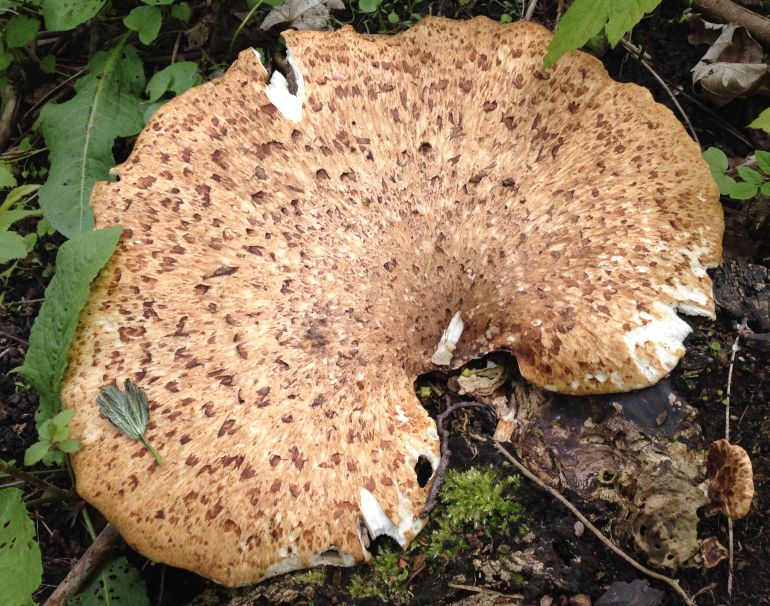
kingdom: Fungi
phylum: Basidiomycota
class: Agaricomycetes
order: Polyporales
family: Polyporaceae
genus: Cerioporus
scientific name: Cerioporus squamosus
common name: skællet stilkporesvamp
